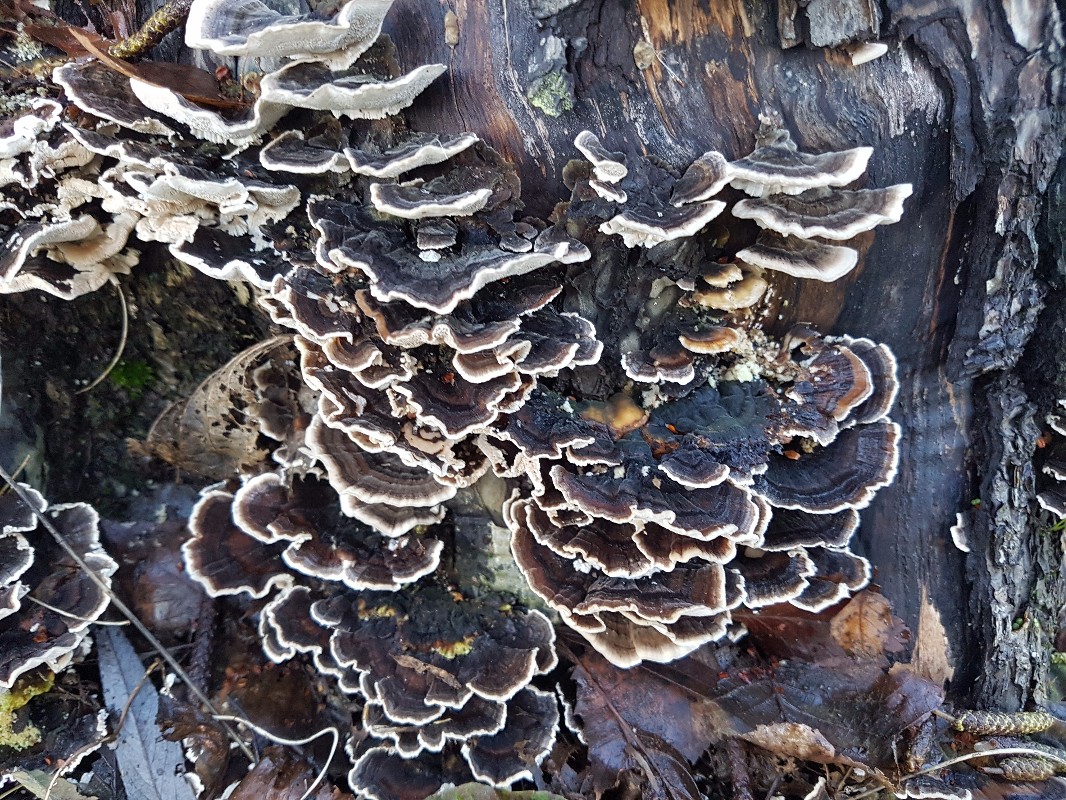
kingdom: Fungi
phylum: Basidiomycota
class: Agaricomycetes
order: Polyporales
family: Polyporaceae
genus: Trametes
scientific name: Trametes versicolor
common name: broget læderporesvamp
